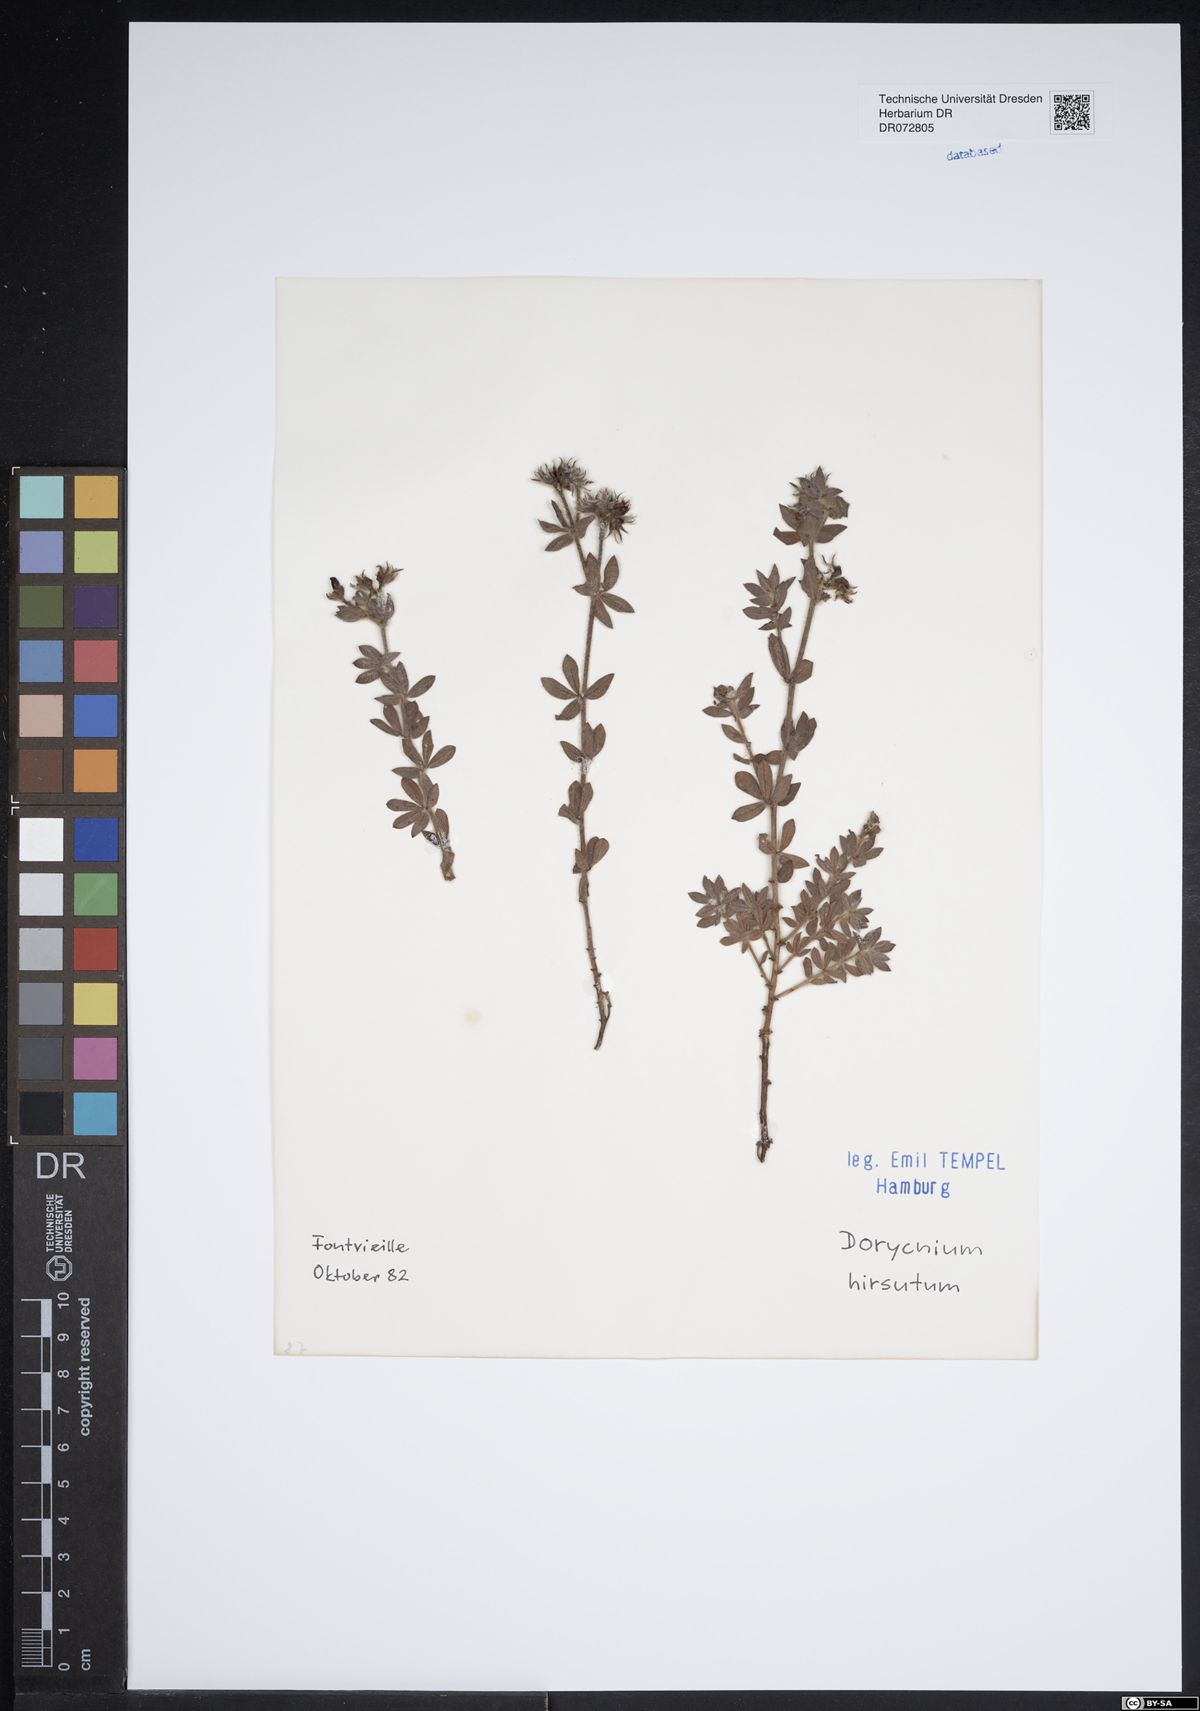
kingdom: Plantae
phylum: Tracheophyta
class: Magnoliopsida
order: Asterales
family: Asteraceae
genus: Doronicum
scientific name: Doronicum clusii
